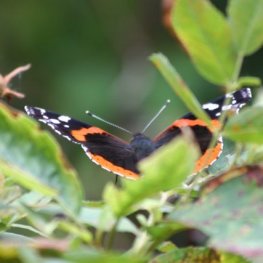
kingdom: Animalia
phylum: Arthropoda
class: Insecta
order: Lepidoptera
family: Nymphalidae
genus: Vanessa
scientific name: Vanessa atalanta
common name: Red Admiral
